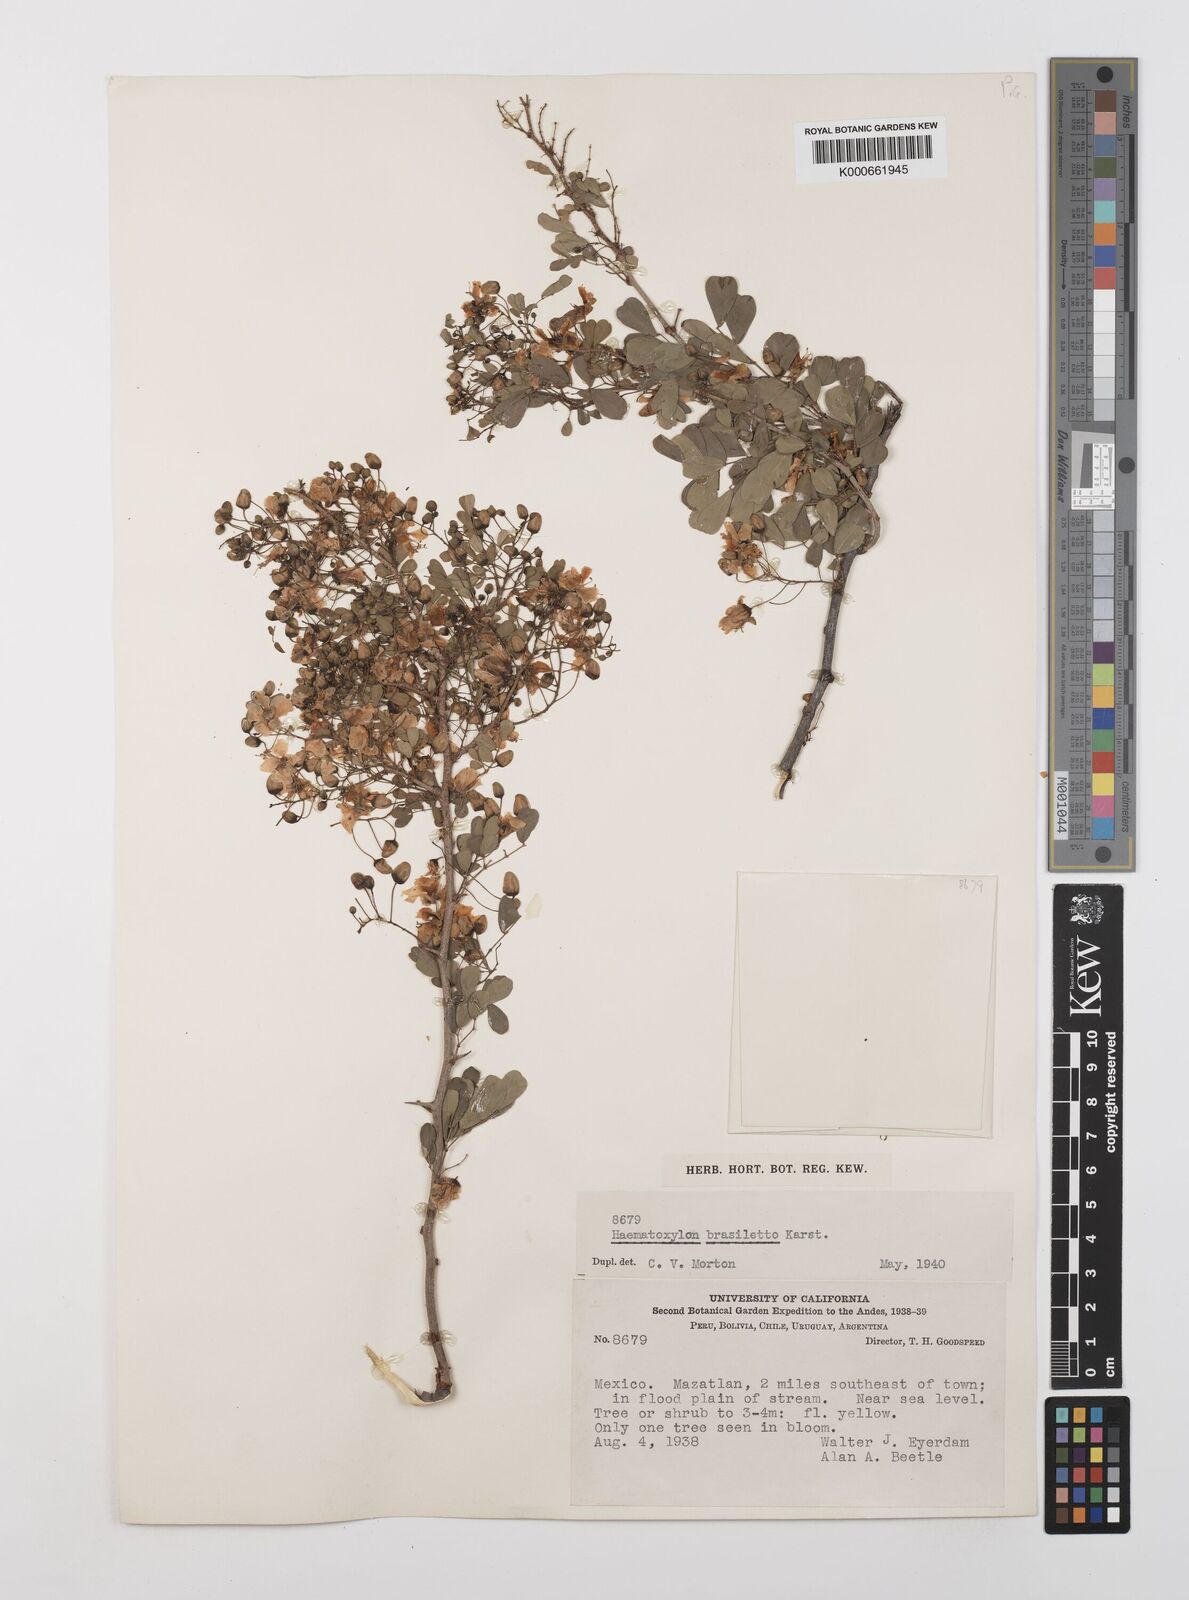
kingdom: Plantae
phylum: Tracheophyta
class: Magnoliopsida
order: Fabales
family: Fabaceae
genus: Haematoxylum
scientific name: Haematoxylum brasiletto
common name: Peachwood
